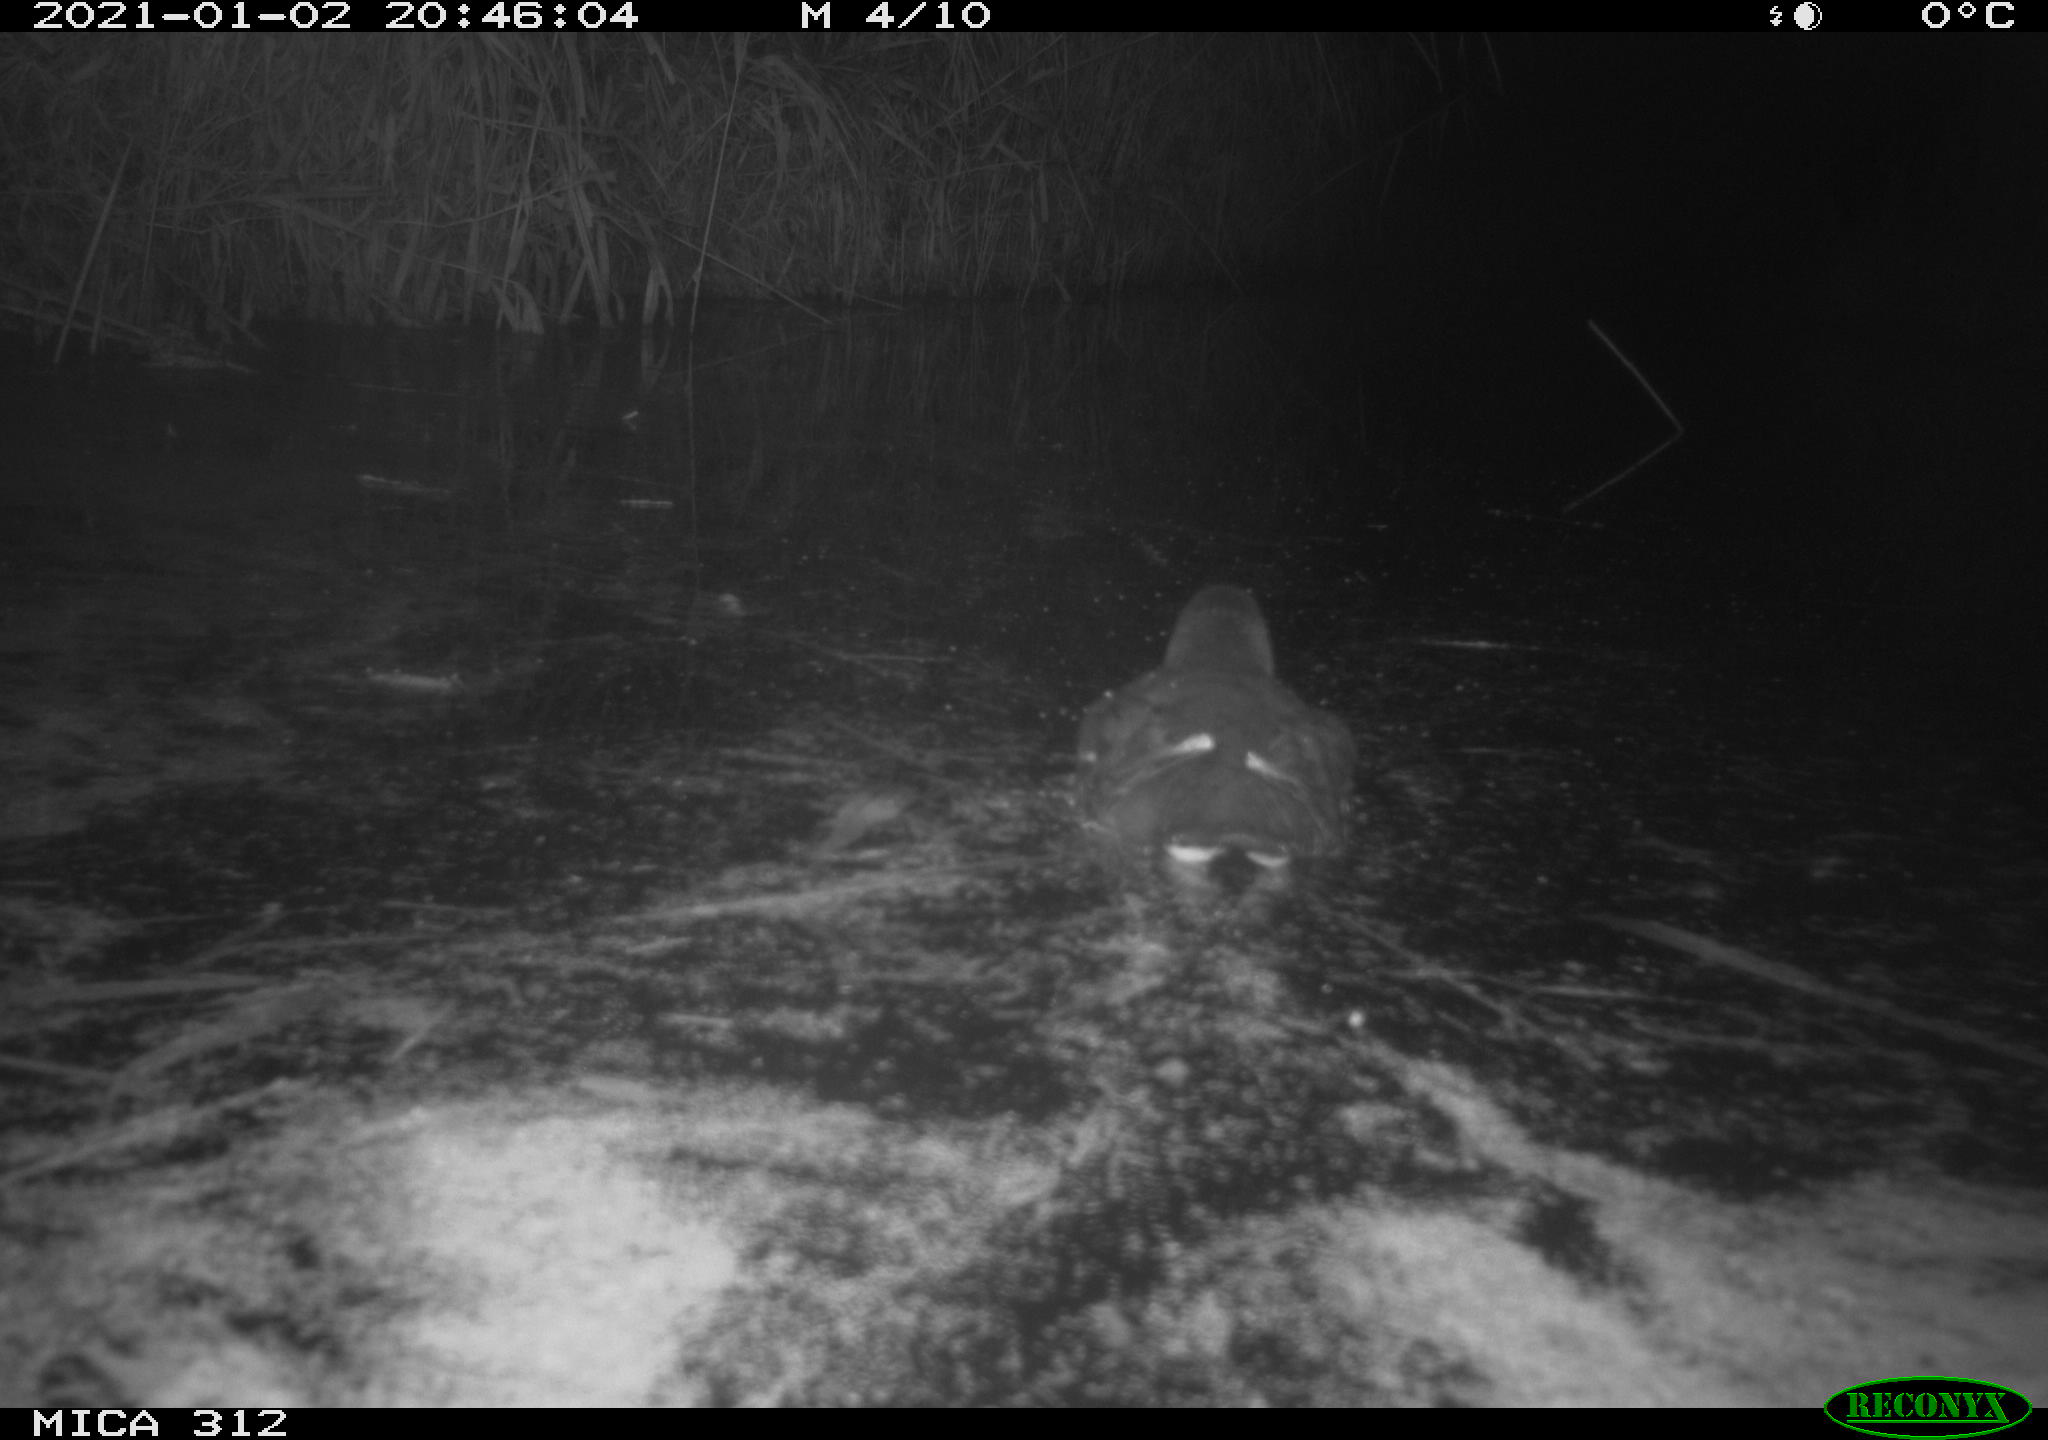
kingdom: Animalia
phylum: Chordata
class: Aves
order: Gruiformes
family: Rallidae
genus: Gallinula
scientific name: Gallinula chloropus
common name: Common moorhen
